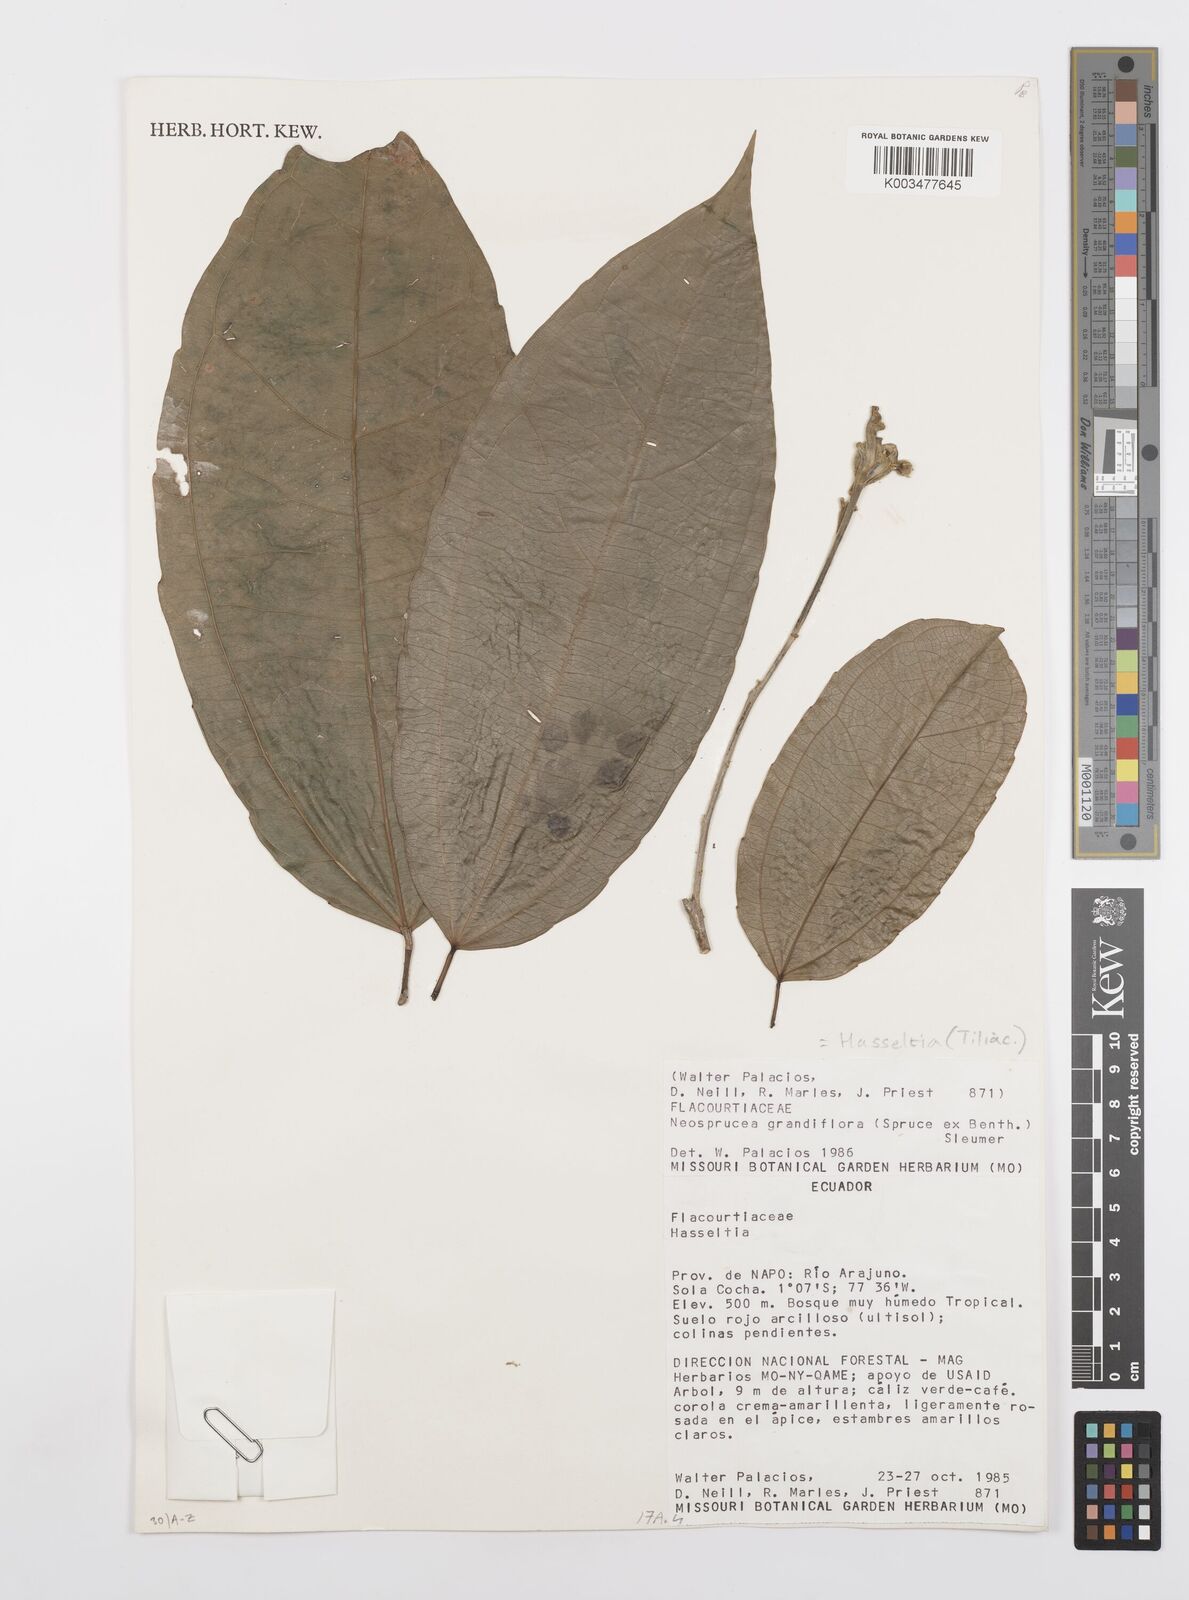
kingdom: Plantae
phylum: Tracheophyta
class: Magnoliopsida
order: Malpighiales
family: Salicaceae
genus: Neosprucea
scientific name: Neosprucea grandiflora
